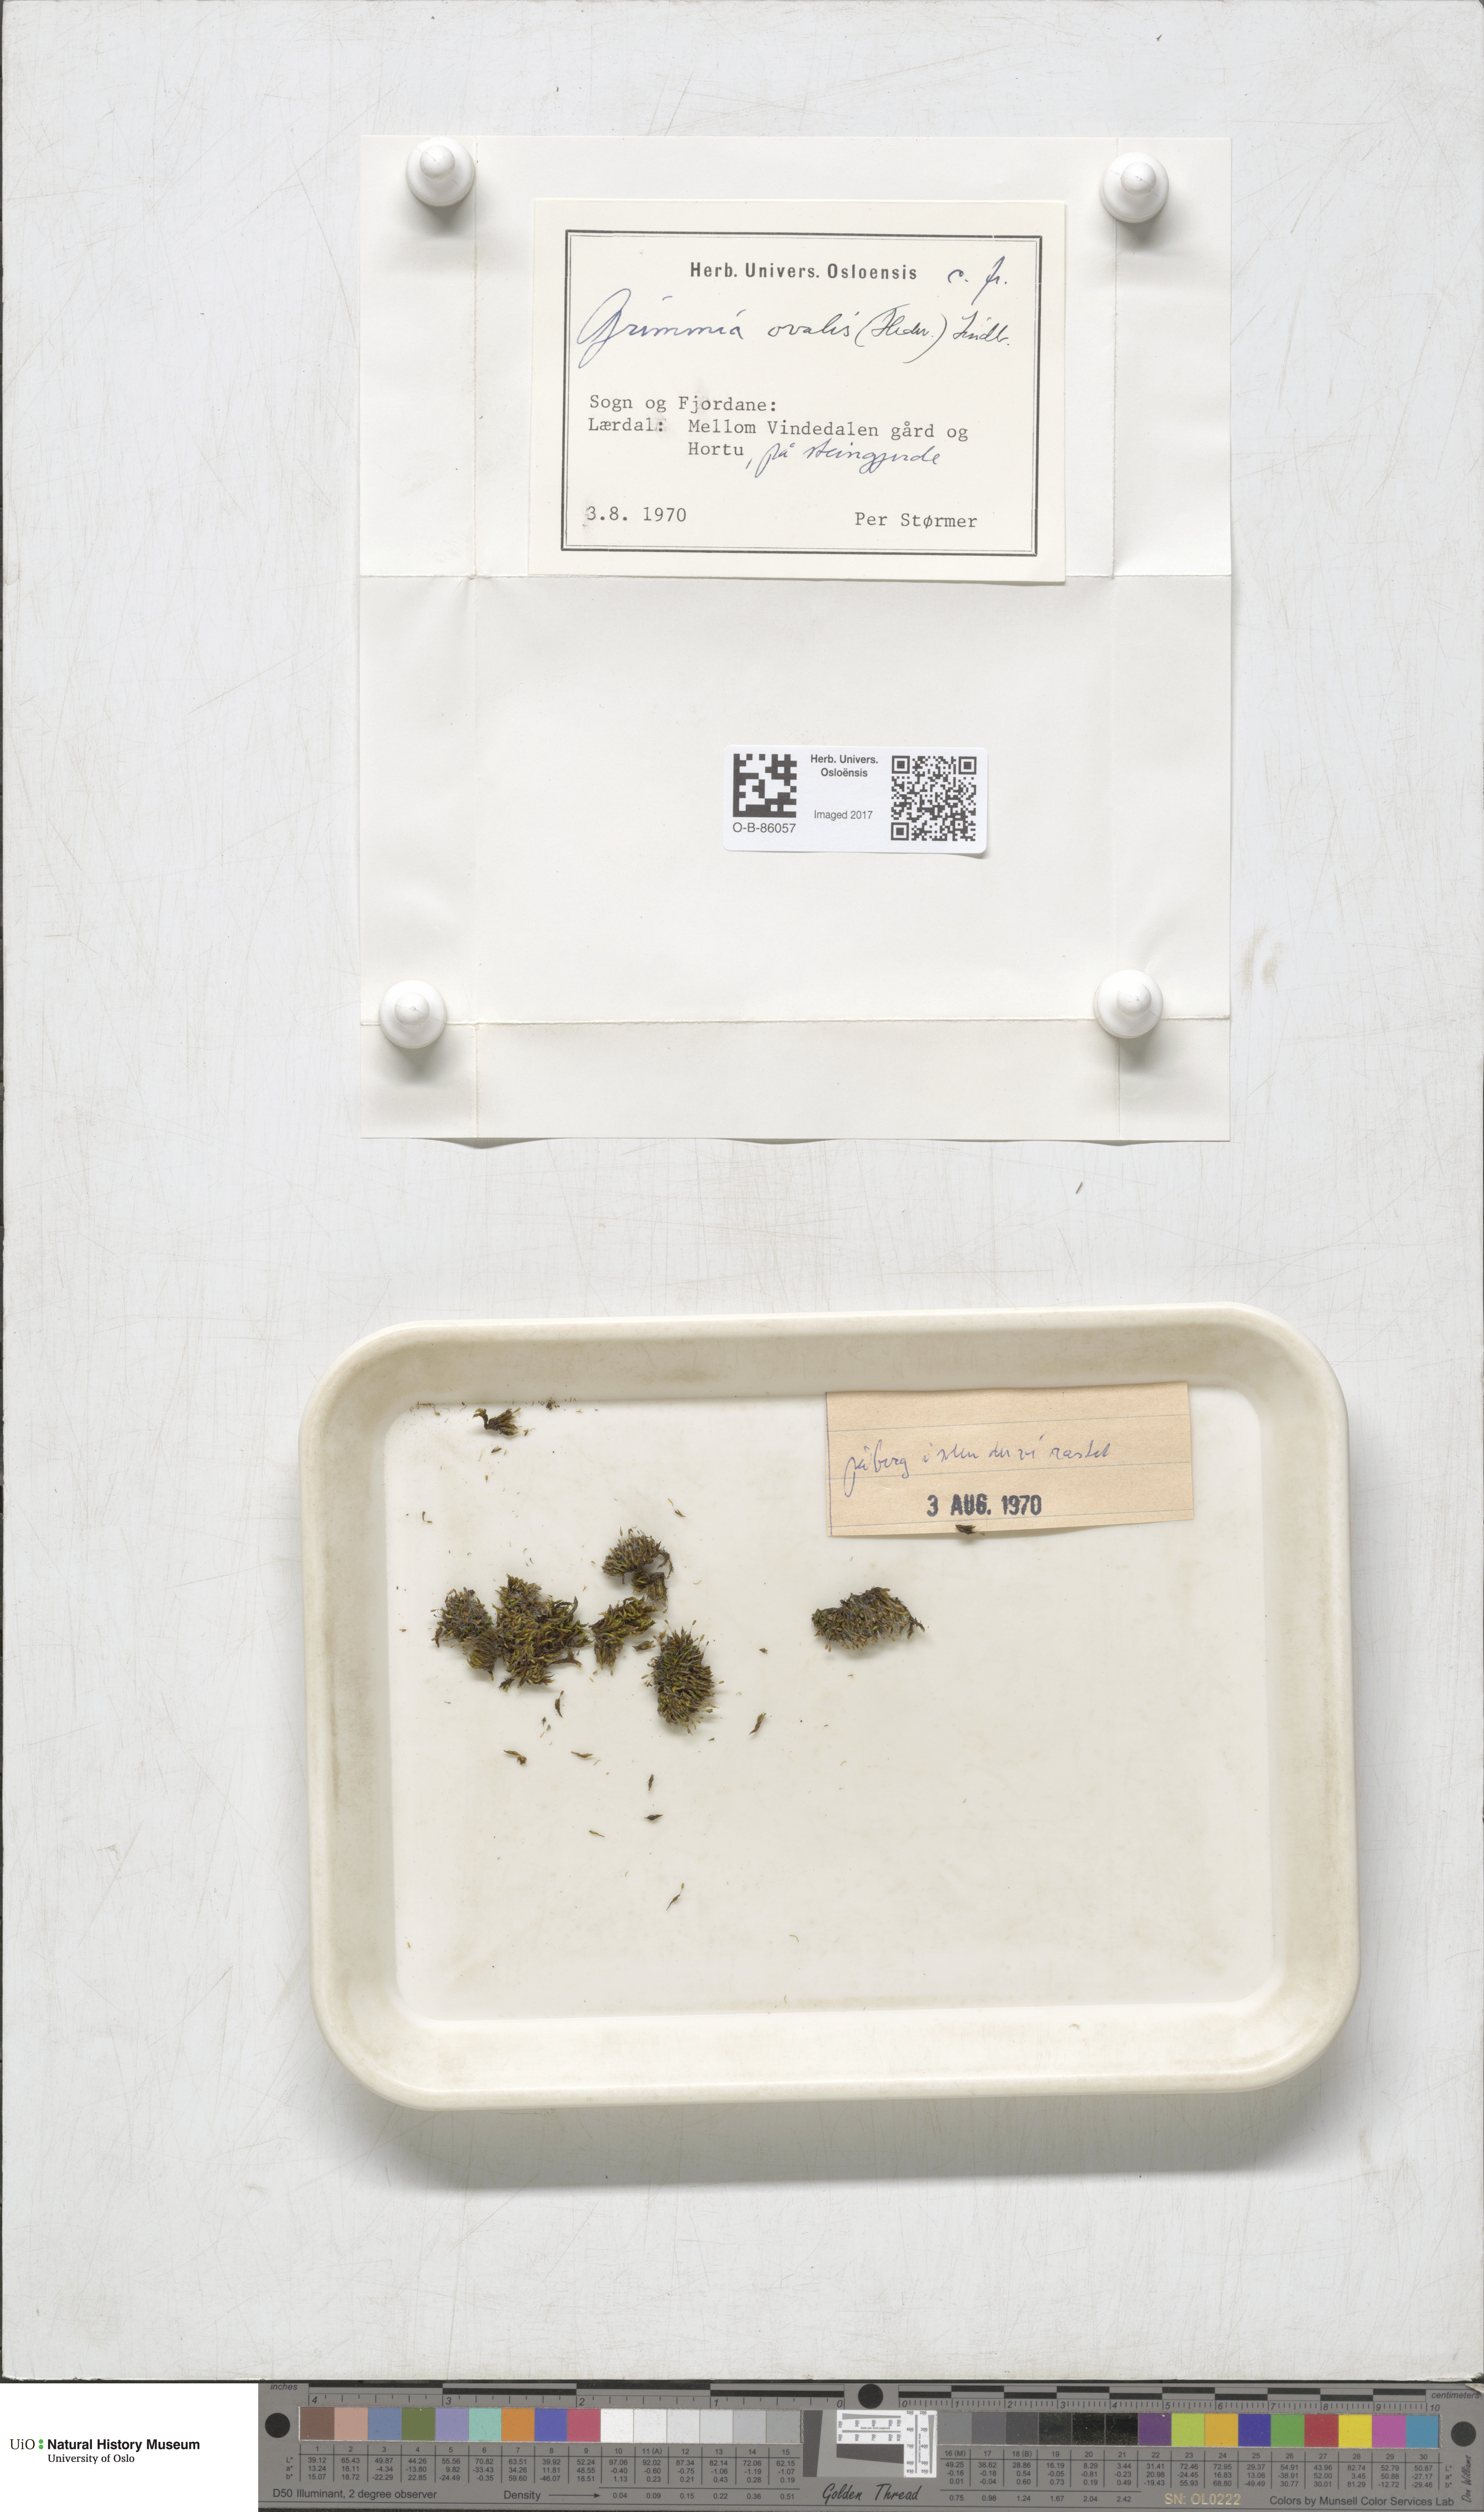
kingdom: Plantae
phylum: Bryophyta
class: Bryopsida
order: Grimmiales
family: Grimmiaceae
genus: Grimmia
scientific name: Grimmia ovalis
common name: Oval grimmia
